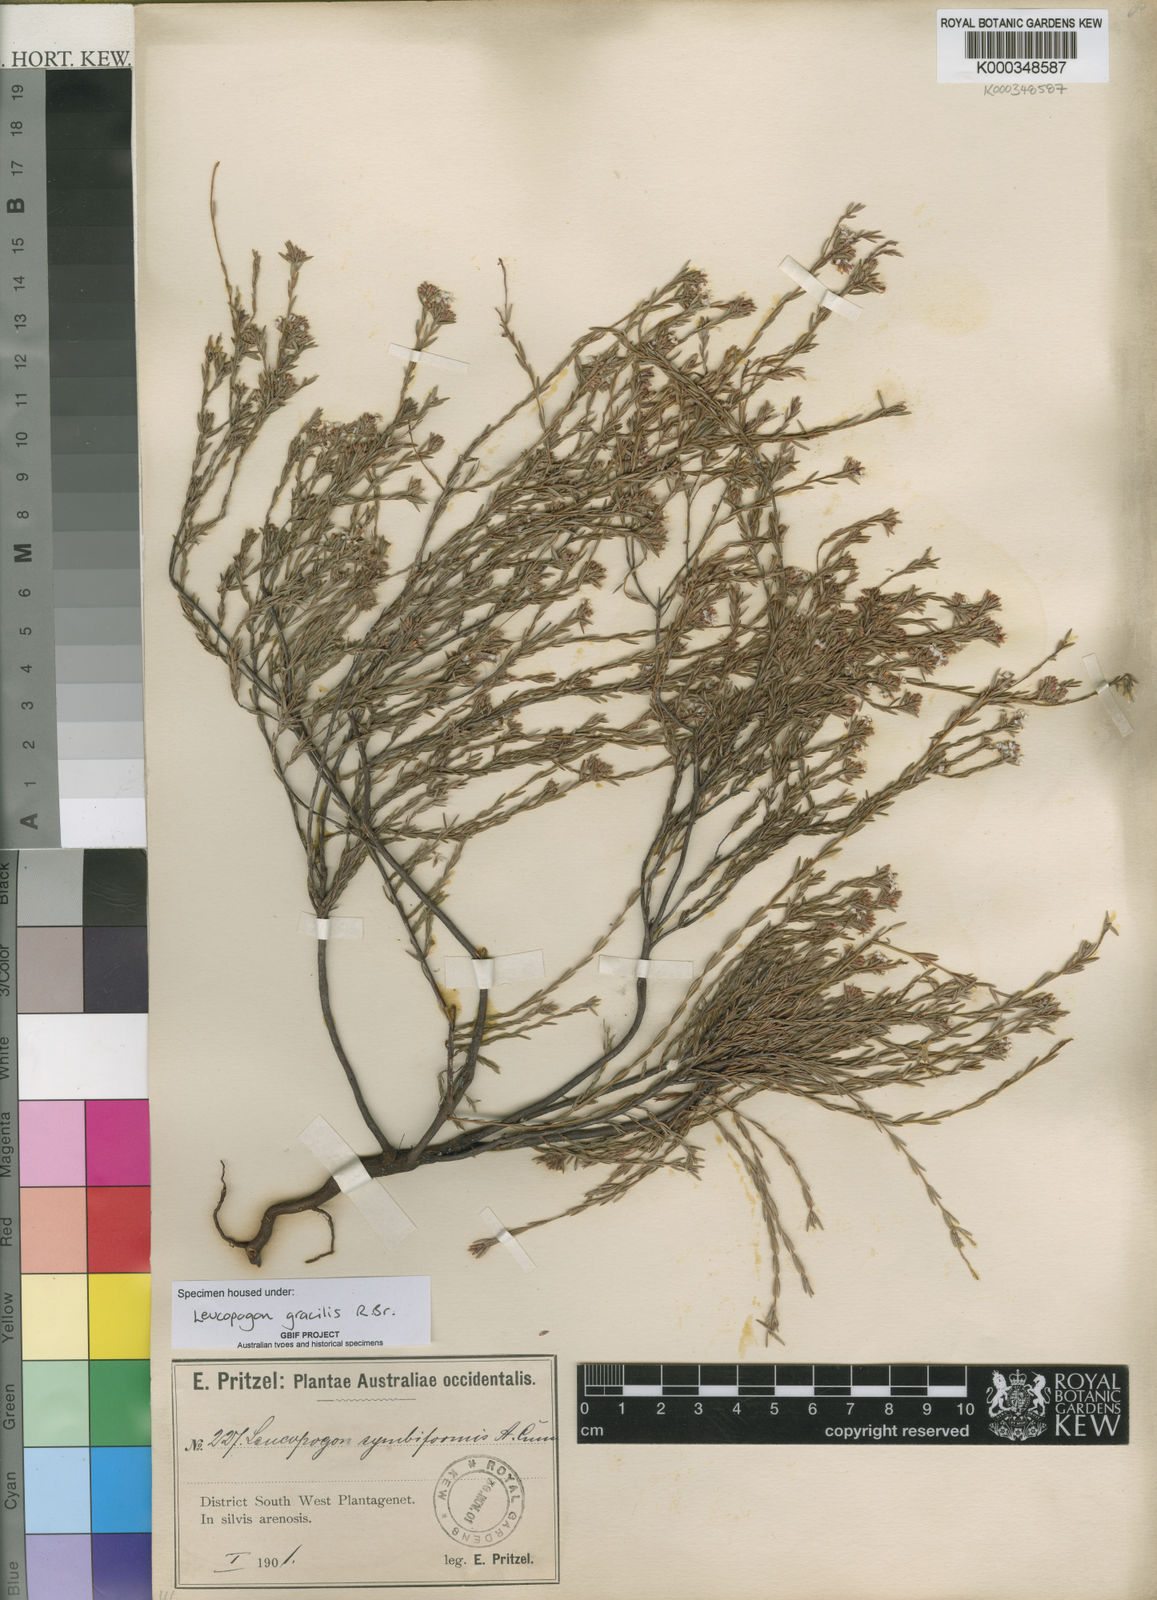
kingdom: Plantae
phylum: Tracheophyta
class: Magnoliopsida
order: Ericales
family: Ericaceae
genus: Leucopogon
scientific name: Leucopogon gracilis
